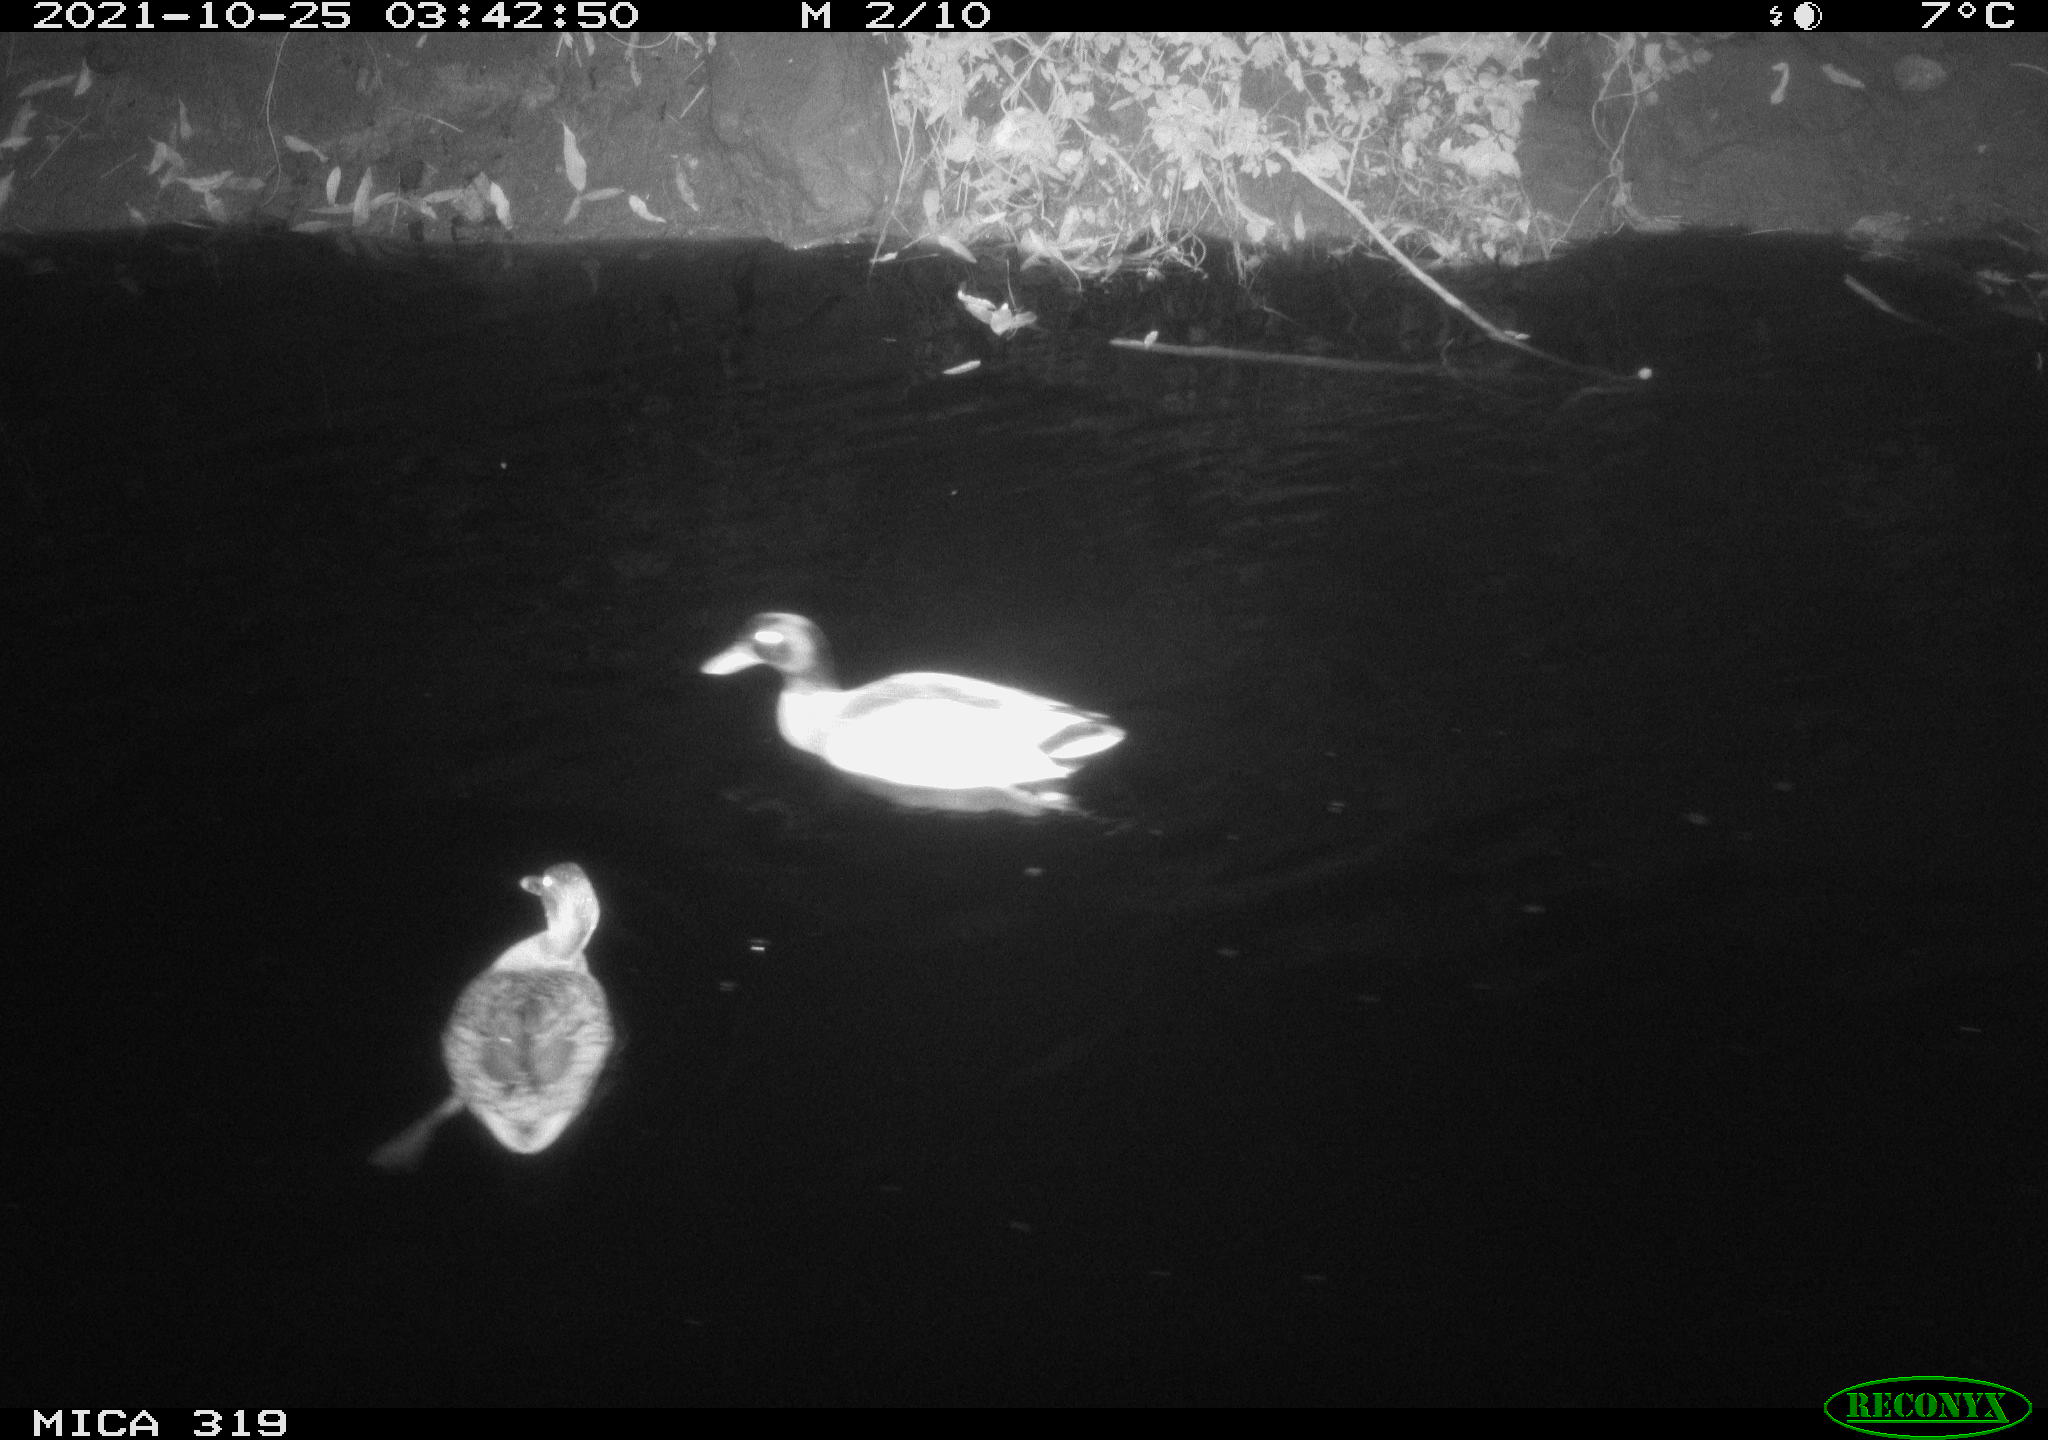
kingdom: Animalia
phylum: Chordata
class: Aves
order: Anseriformes
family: Anatidae
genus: Anas
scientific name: Anas platyrhynchos
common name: Mallard
